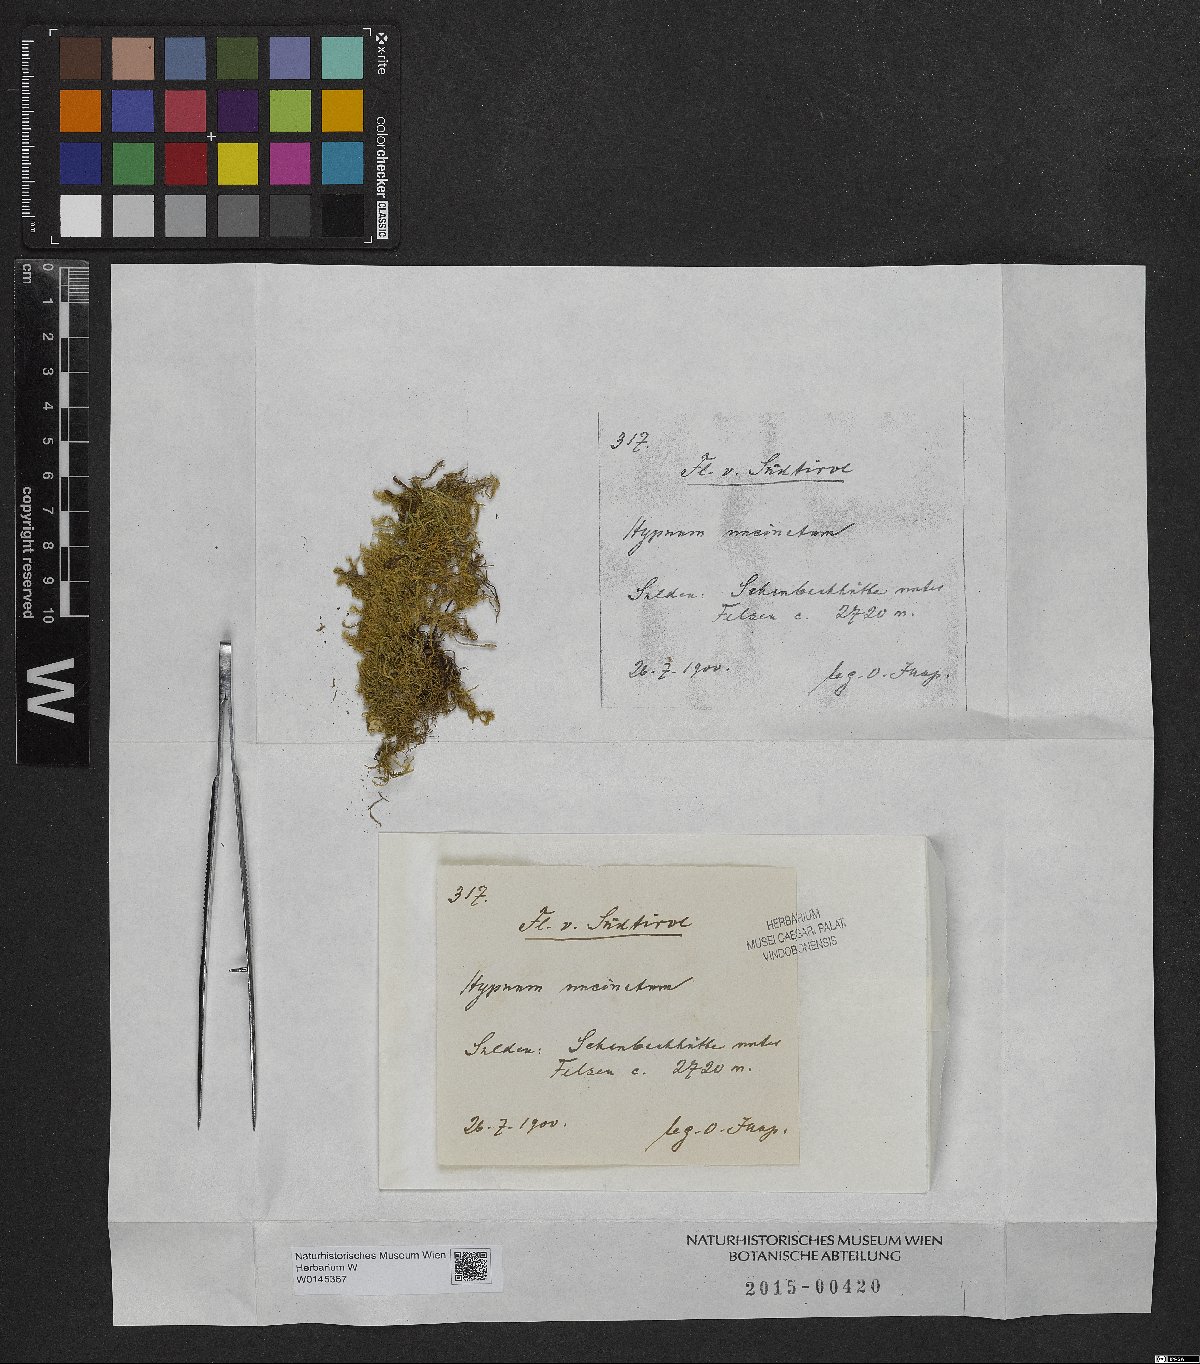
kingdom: Plantae
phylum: Bryophyta
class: Bryopsida
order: Hypnales
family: Scorpidiaceae
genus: Sanionia
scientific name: Sanionia uncinata
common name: Sickle moss
